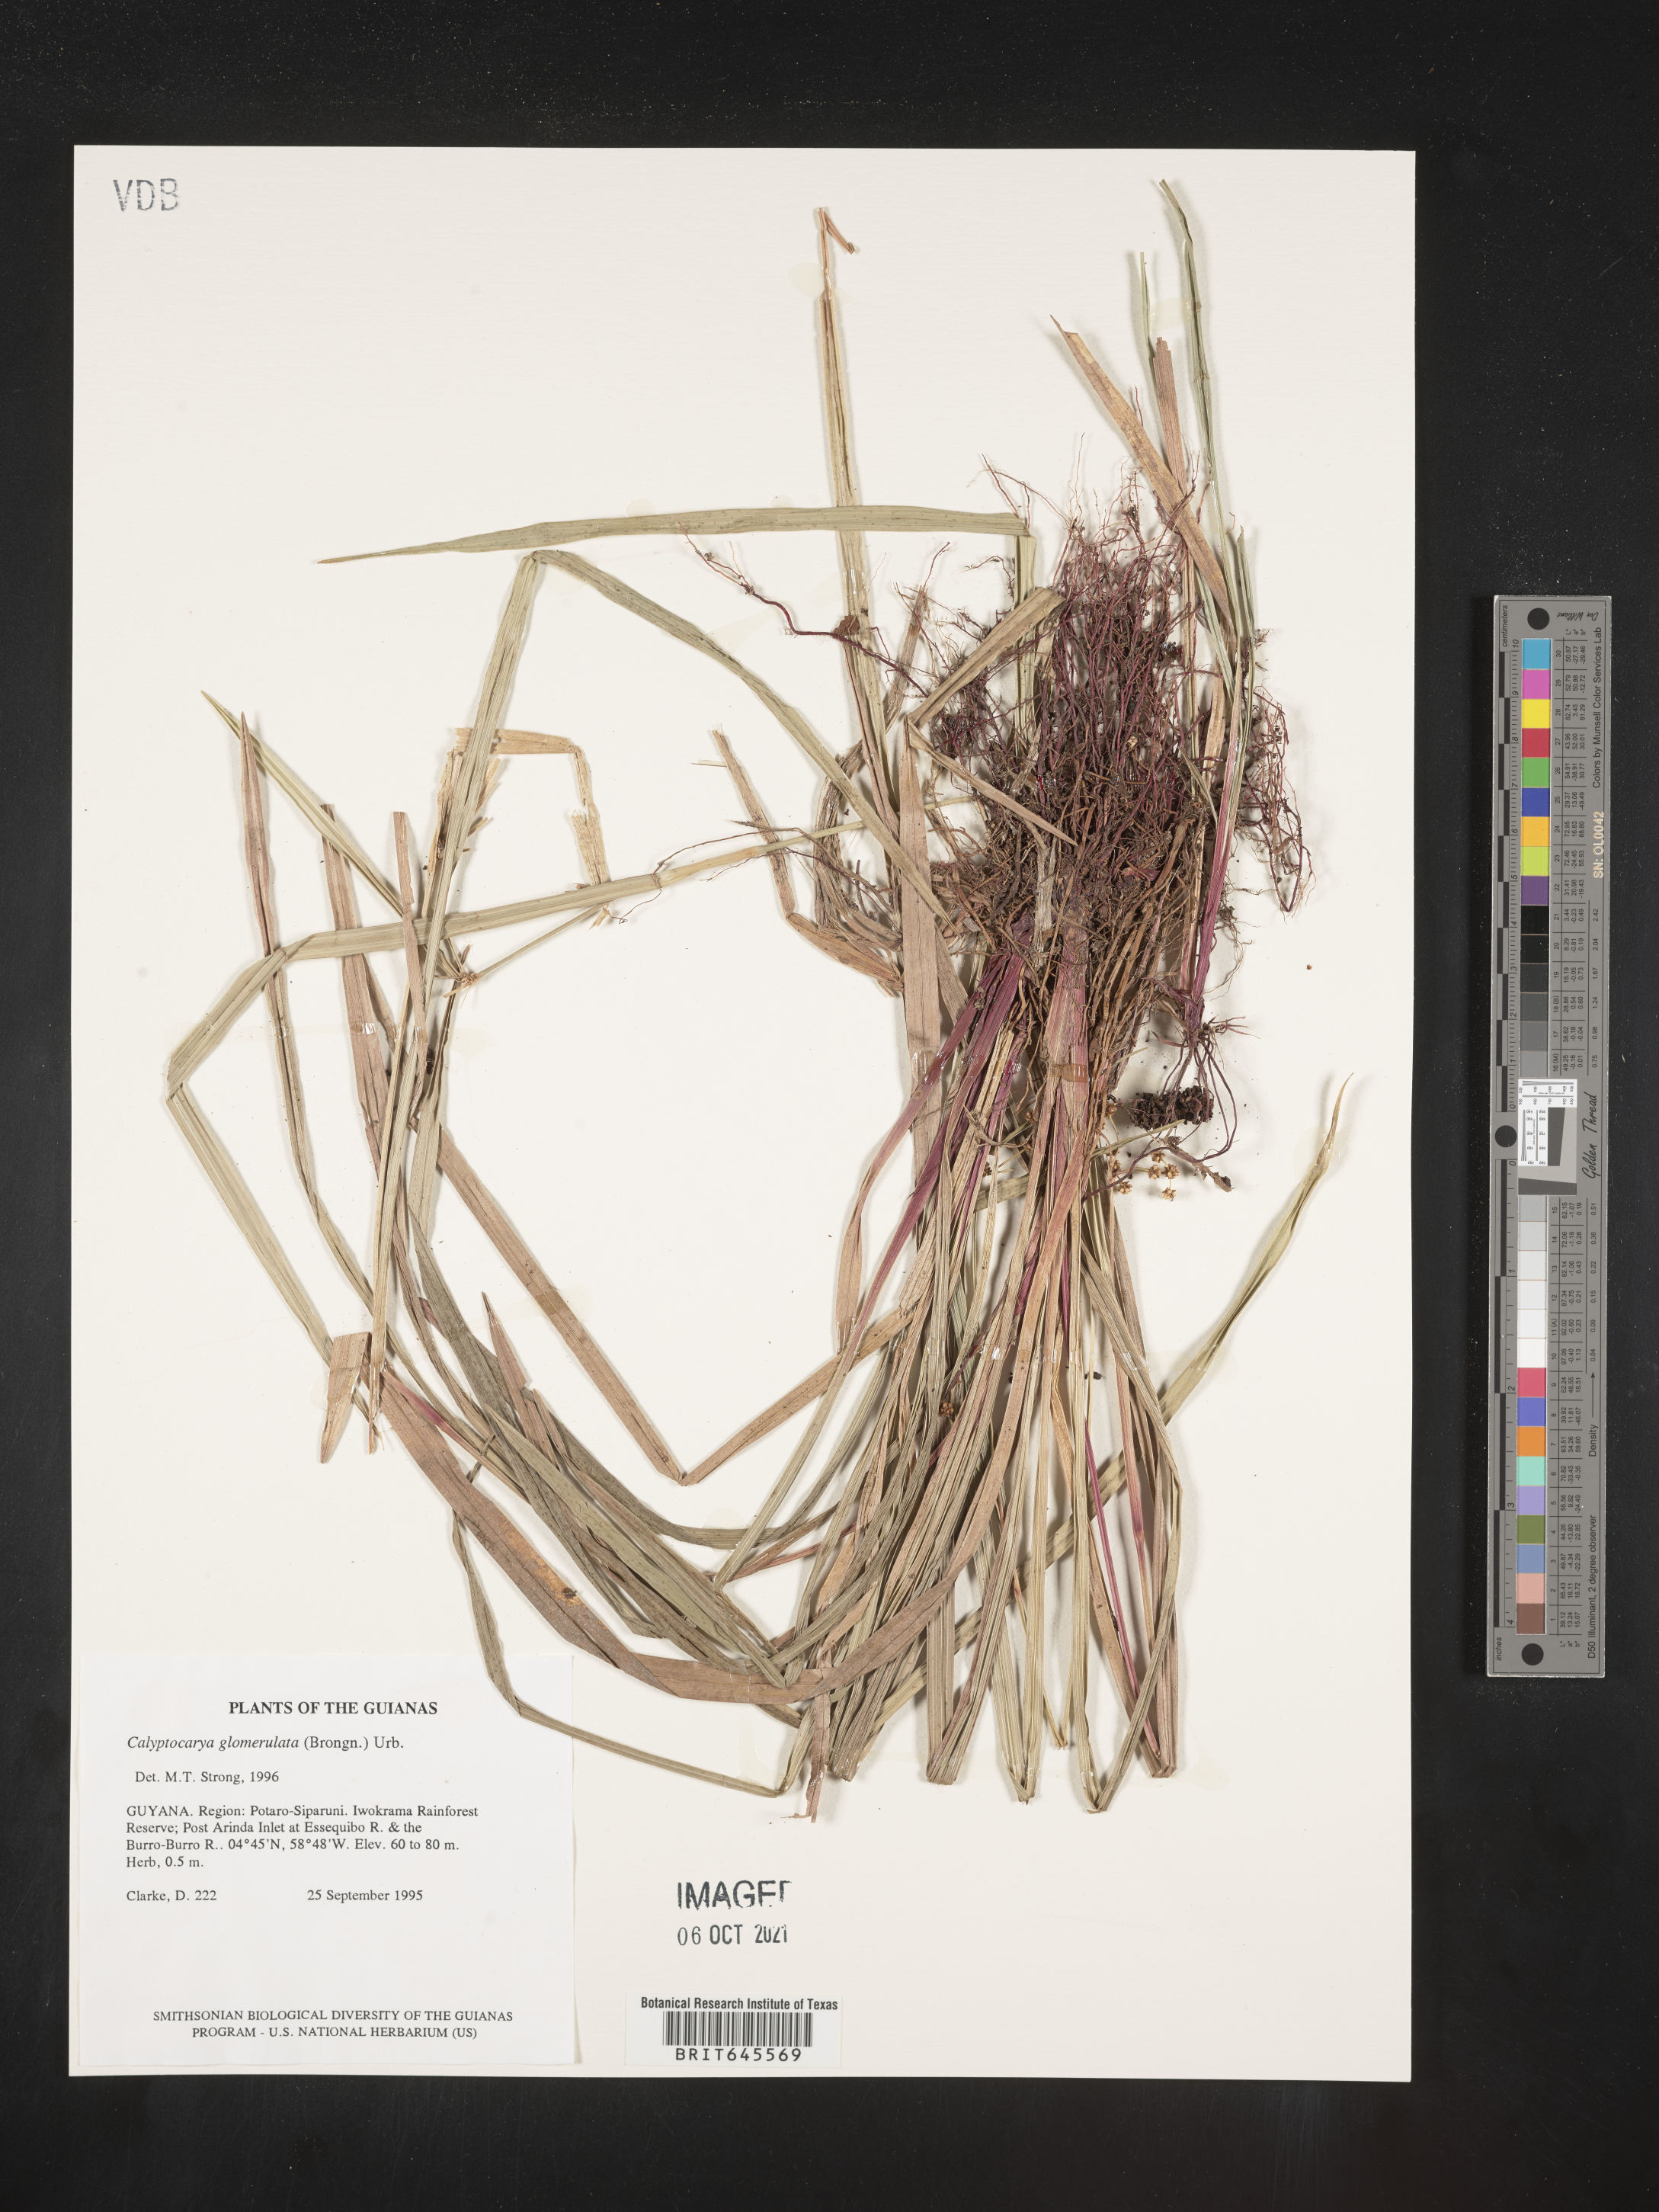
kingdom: Plantae
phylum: Tracheophyta
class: Liliopsida
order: Poales
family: Cyperaceae
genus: Calyptrocarya
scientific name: Calyptrocarya glomerulata
